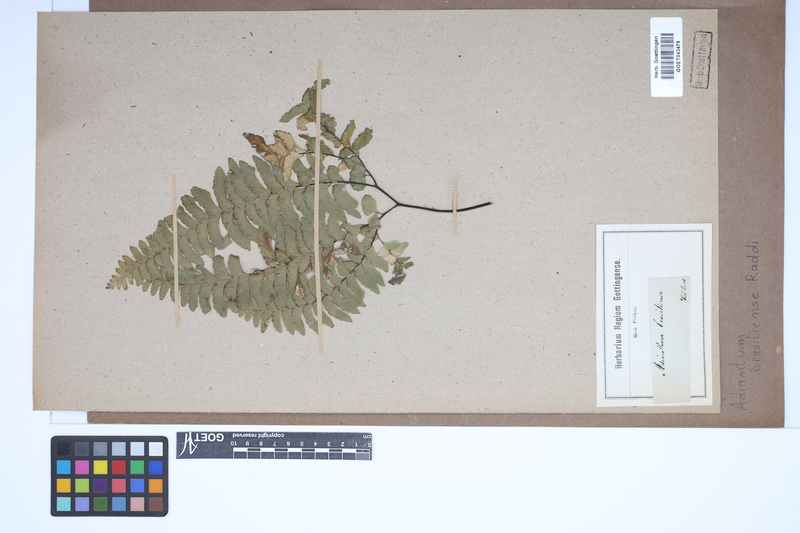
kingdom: Plantae
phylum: Tracheophyta
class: Polypodiopsida
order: Polypodiales
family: Pteridaceae
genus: Adiantum
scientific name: Adiantum abscissum
